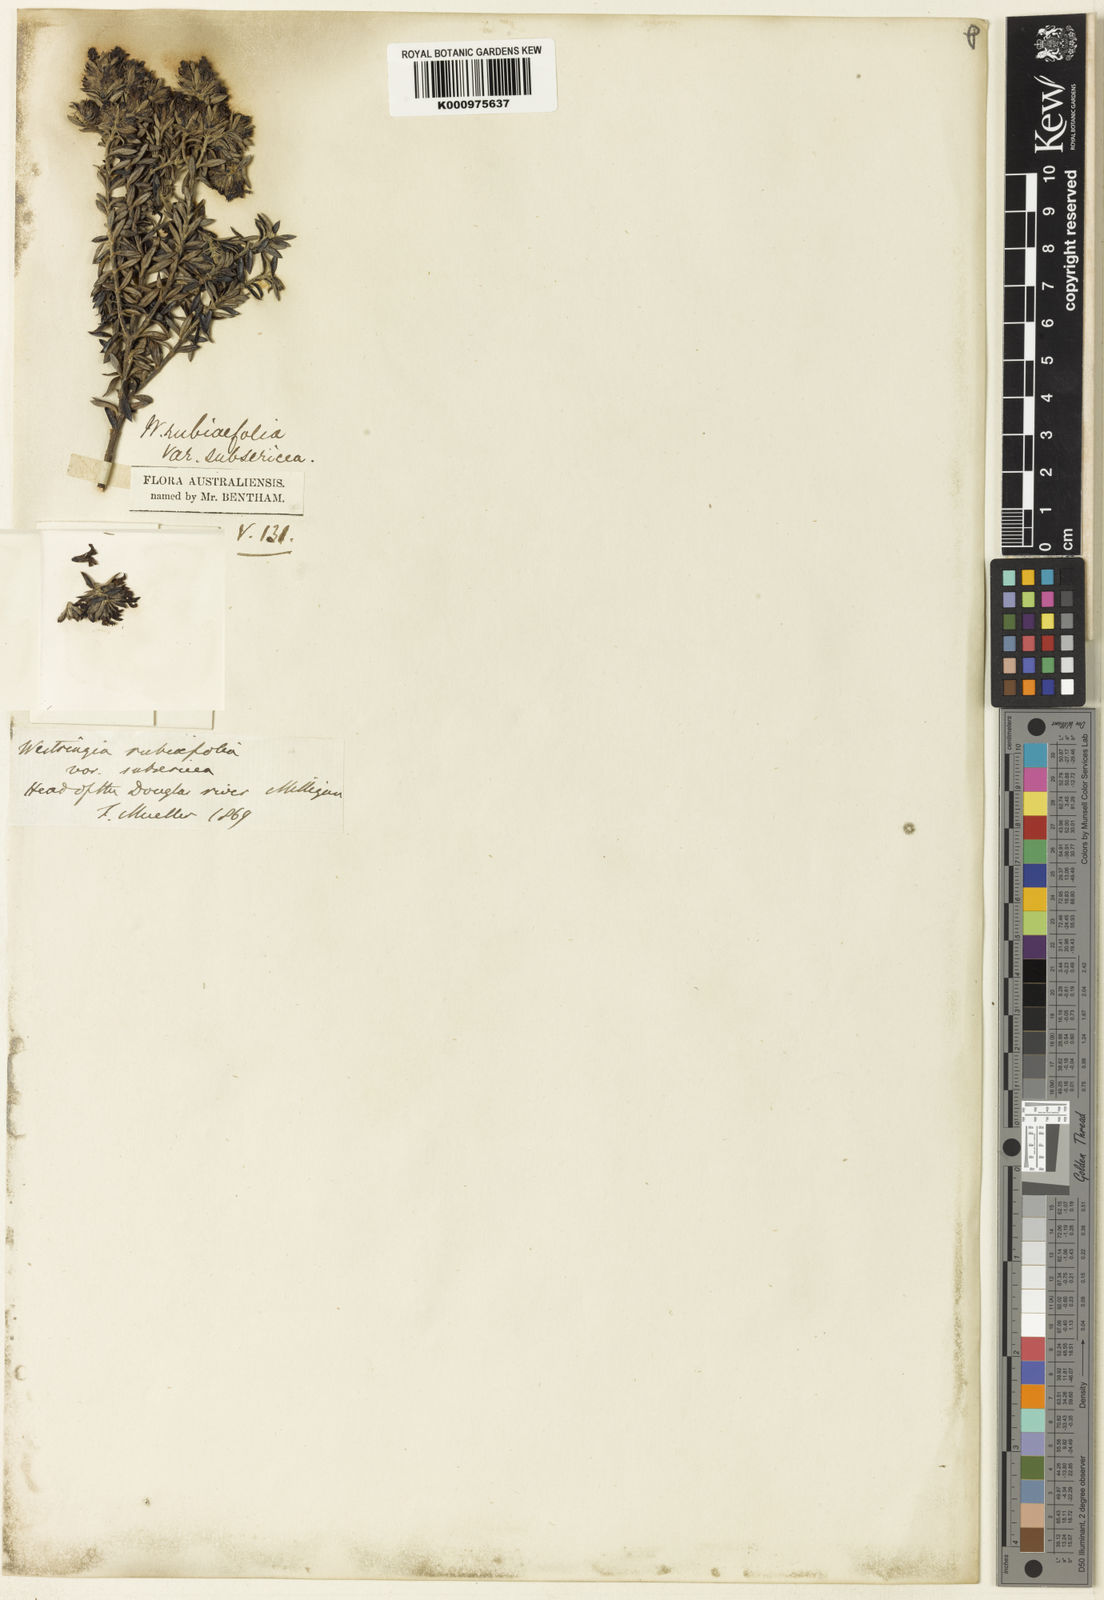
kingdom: Plantae
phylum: Tracheophyta
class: Magnoliopsida
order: Lamiales
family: Lamiaceae
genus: Westringia
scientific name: Westringia rubiifolia
